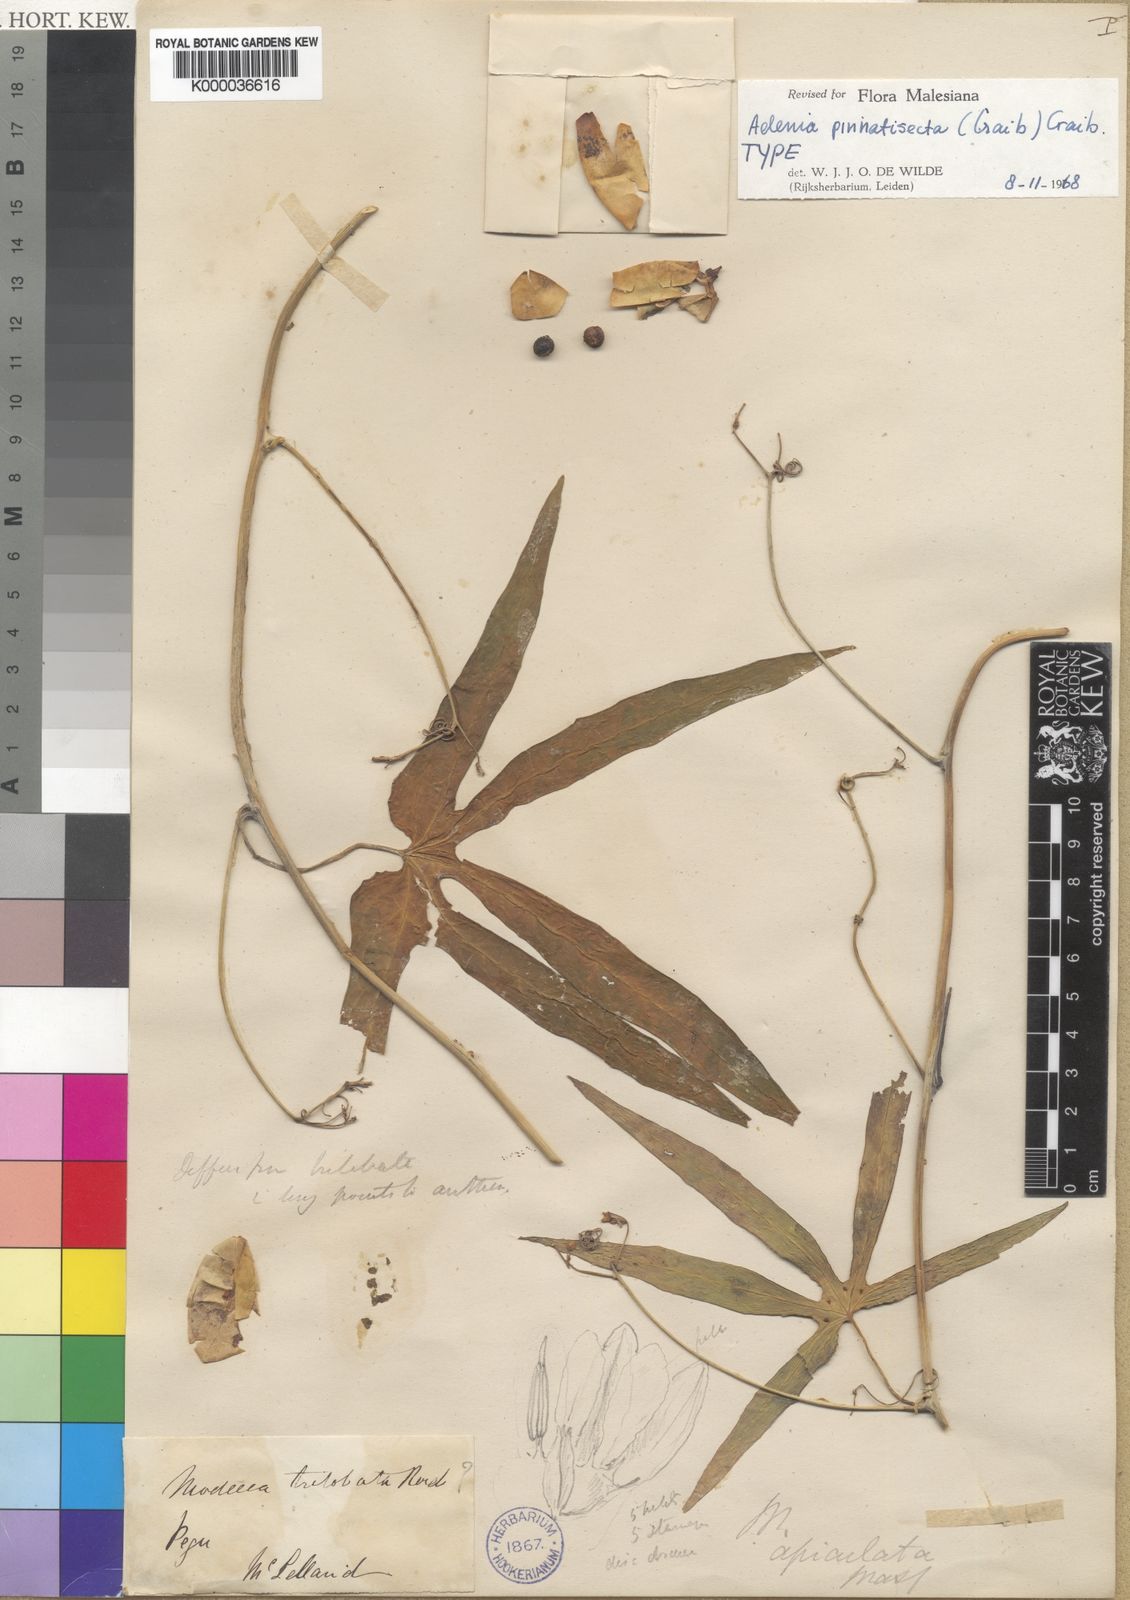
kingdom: Plantae
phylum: Tracheophyta
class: Magnoliopsida
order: Malpighiales
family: Passifloraceae
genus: Adenia
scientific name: Adenia pinnatisecta
